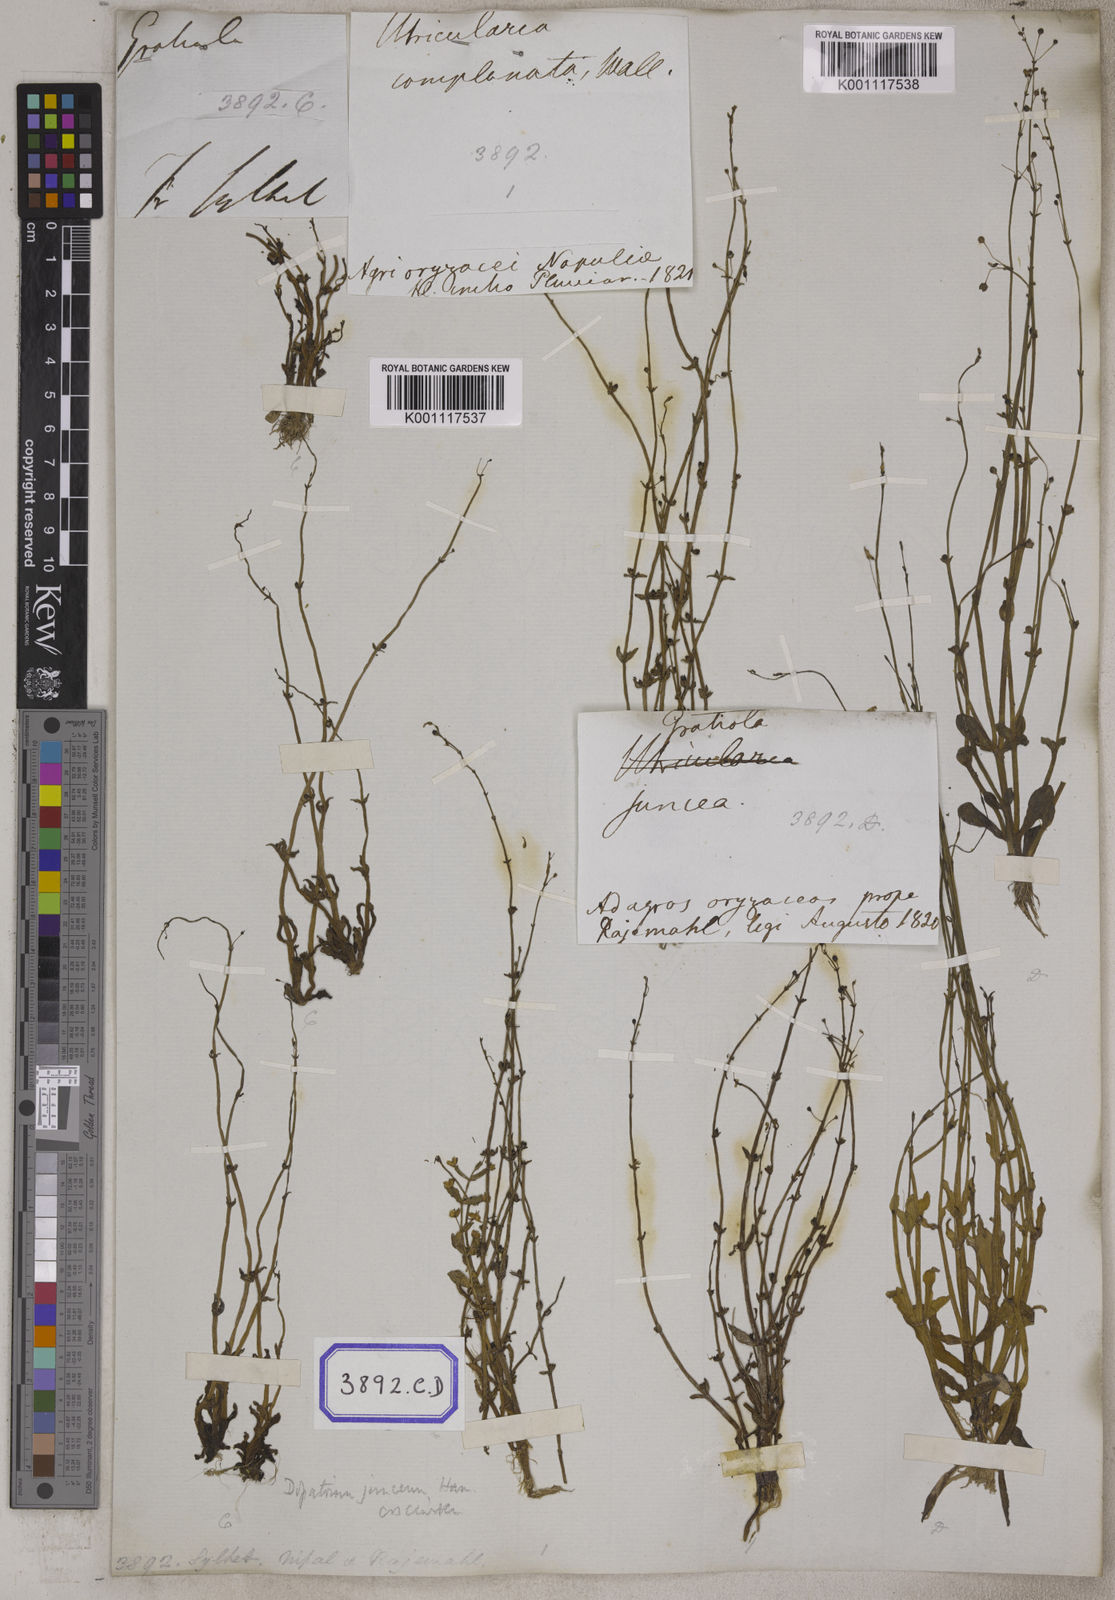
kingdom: Plantae
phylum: Tracheophyta
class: Magnoliopsida
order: Lamiales
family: Plantaginaceae
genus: Dopatrium
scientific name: Dopatrium junceum
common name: Horsefly's eye
